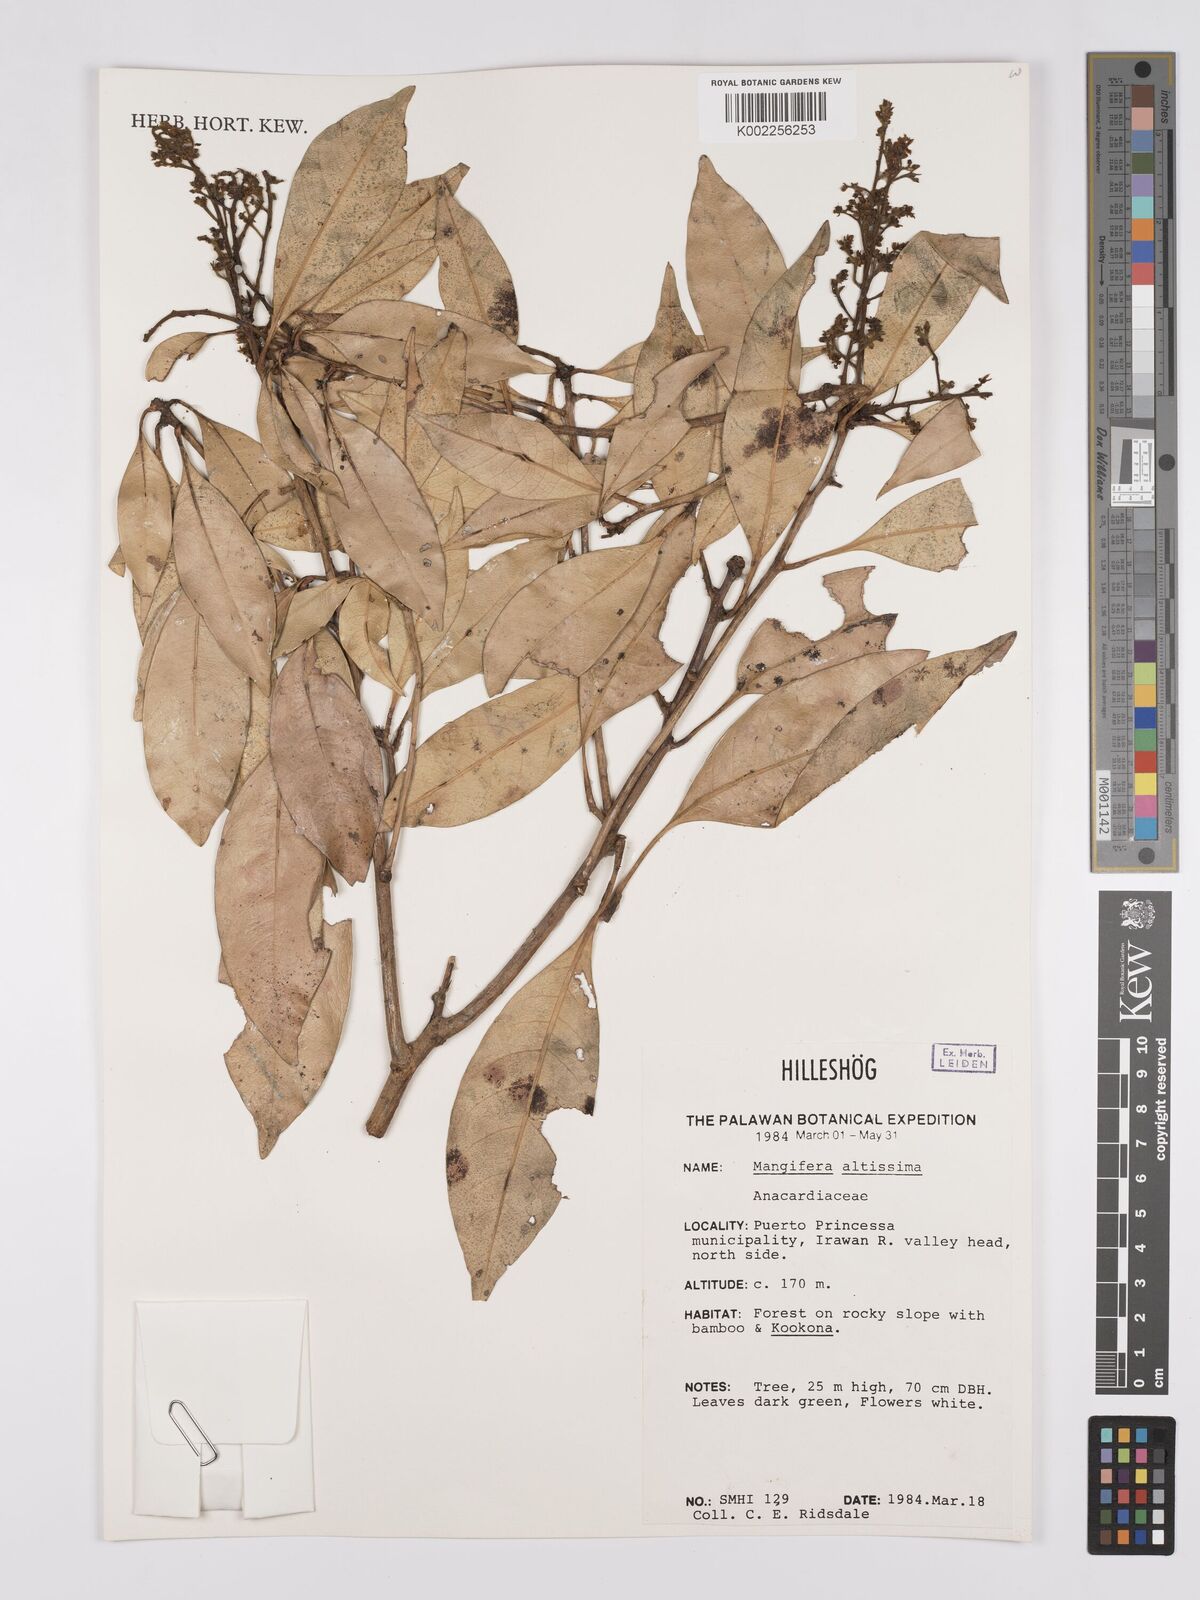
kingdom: Plantae
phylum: Tracheophyta
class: Magnoliopsida
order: Sapindales
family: Anacardiaceae
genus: Mangifera
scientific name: Mangifera altissima
